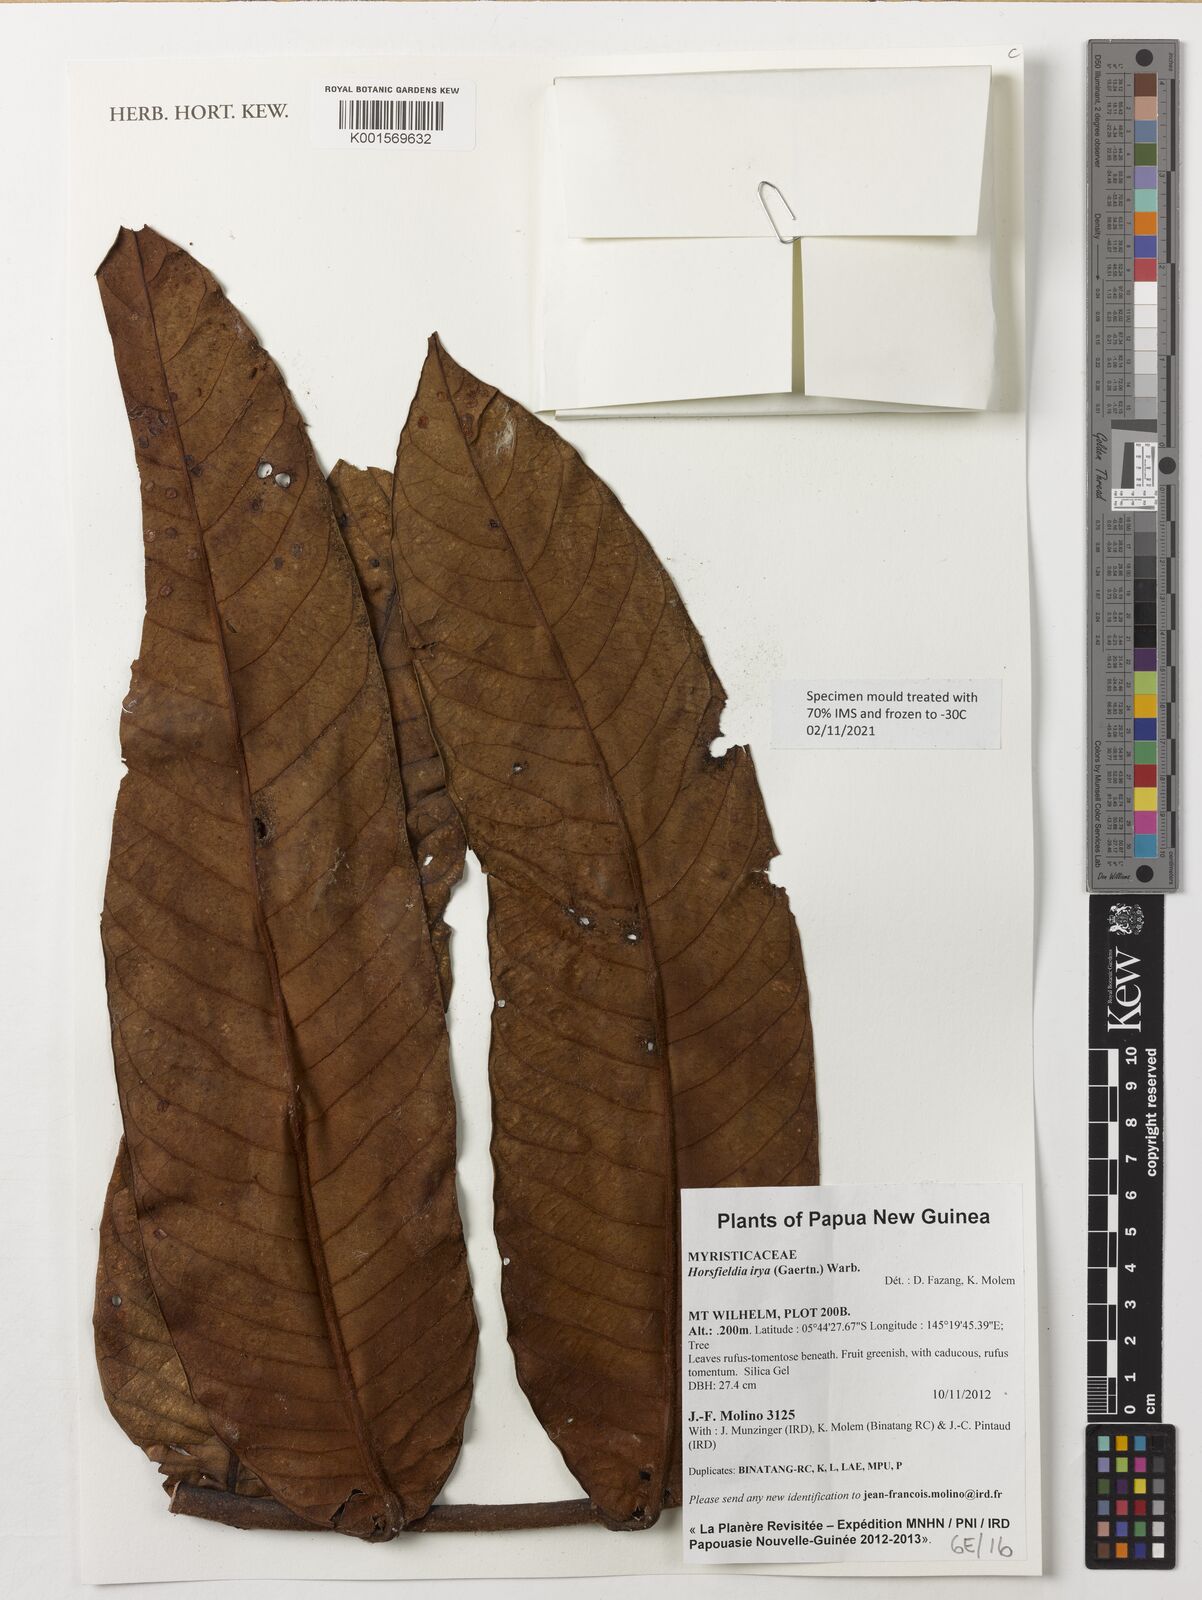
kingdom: Plantae
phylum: Tracheophyta
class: Magnoliopsida
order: Magnoliales
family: Myristicaceae
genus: Horsfieldia
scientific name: Horsfieldia irya
